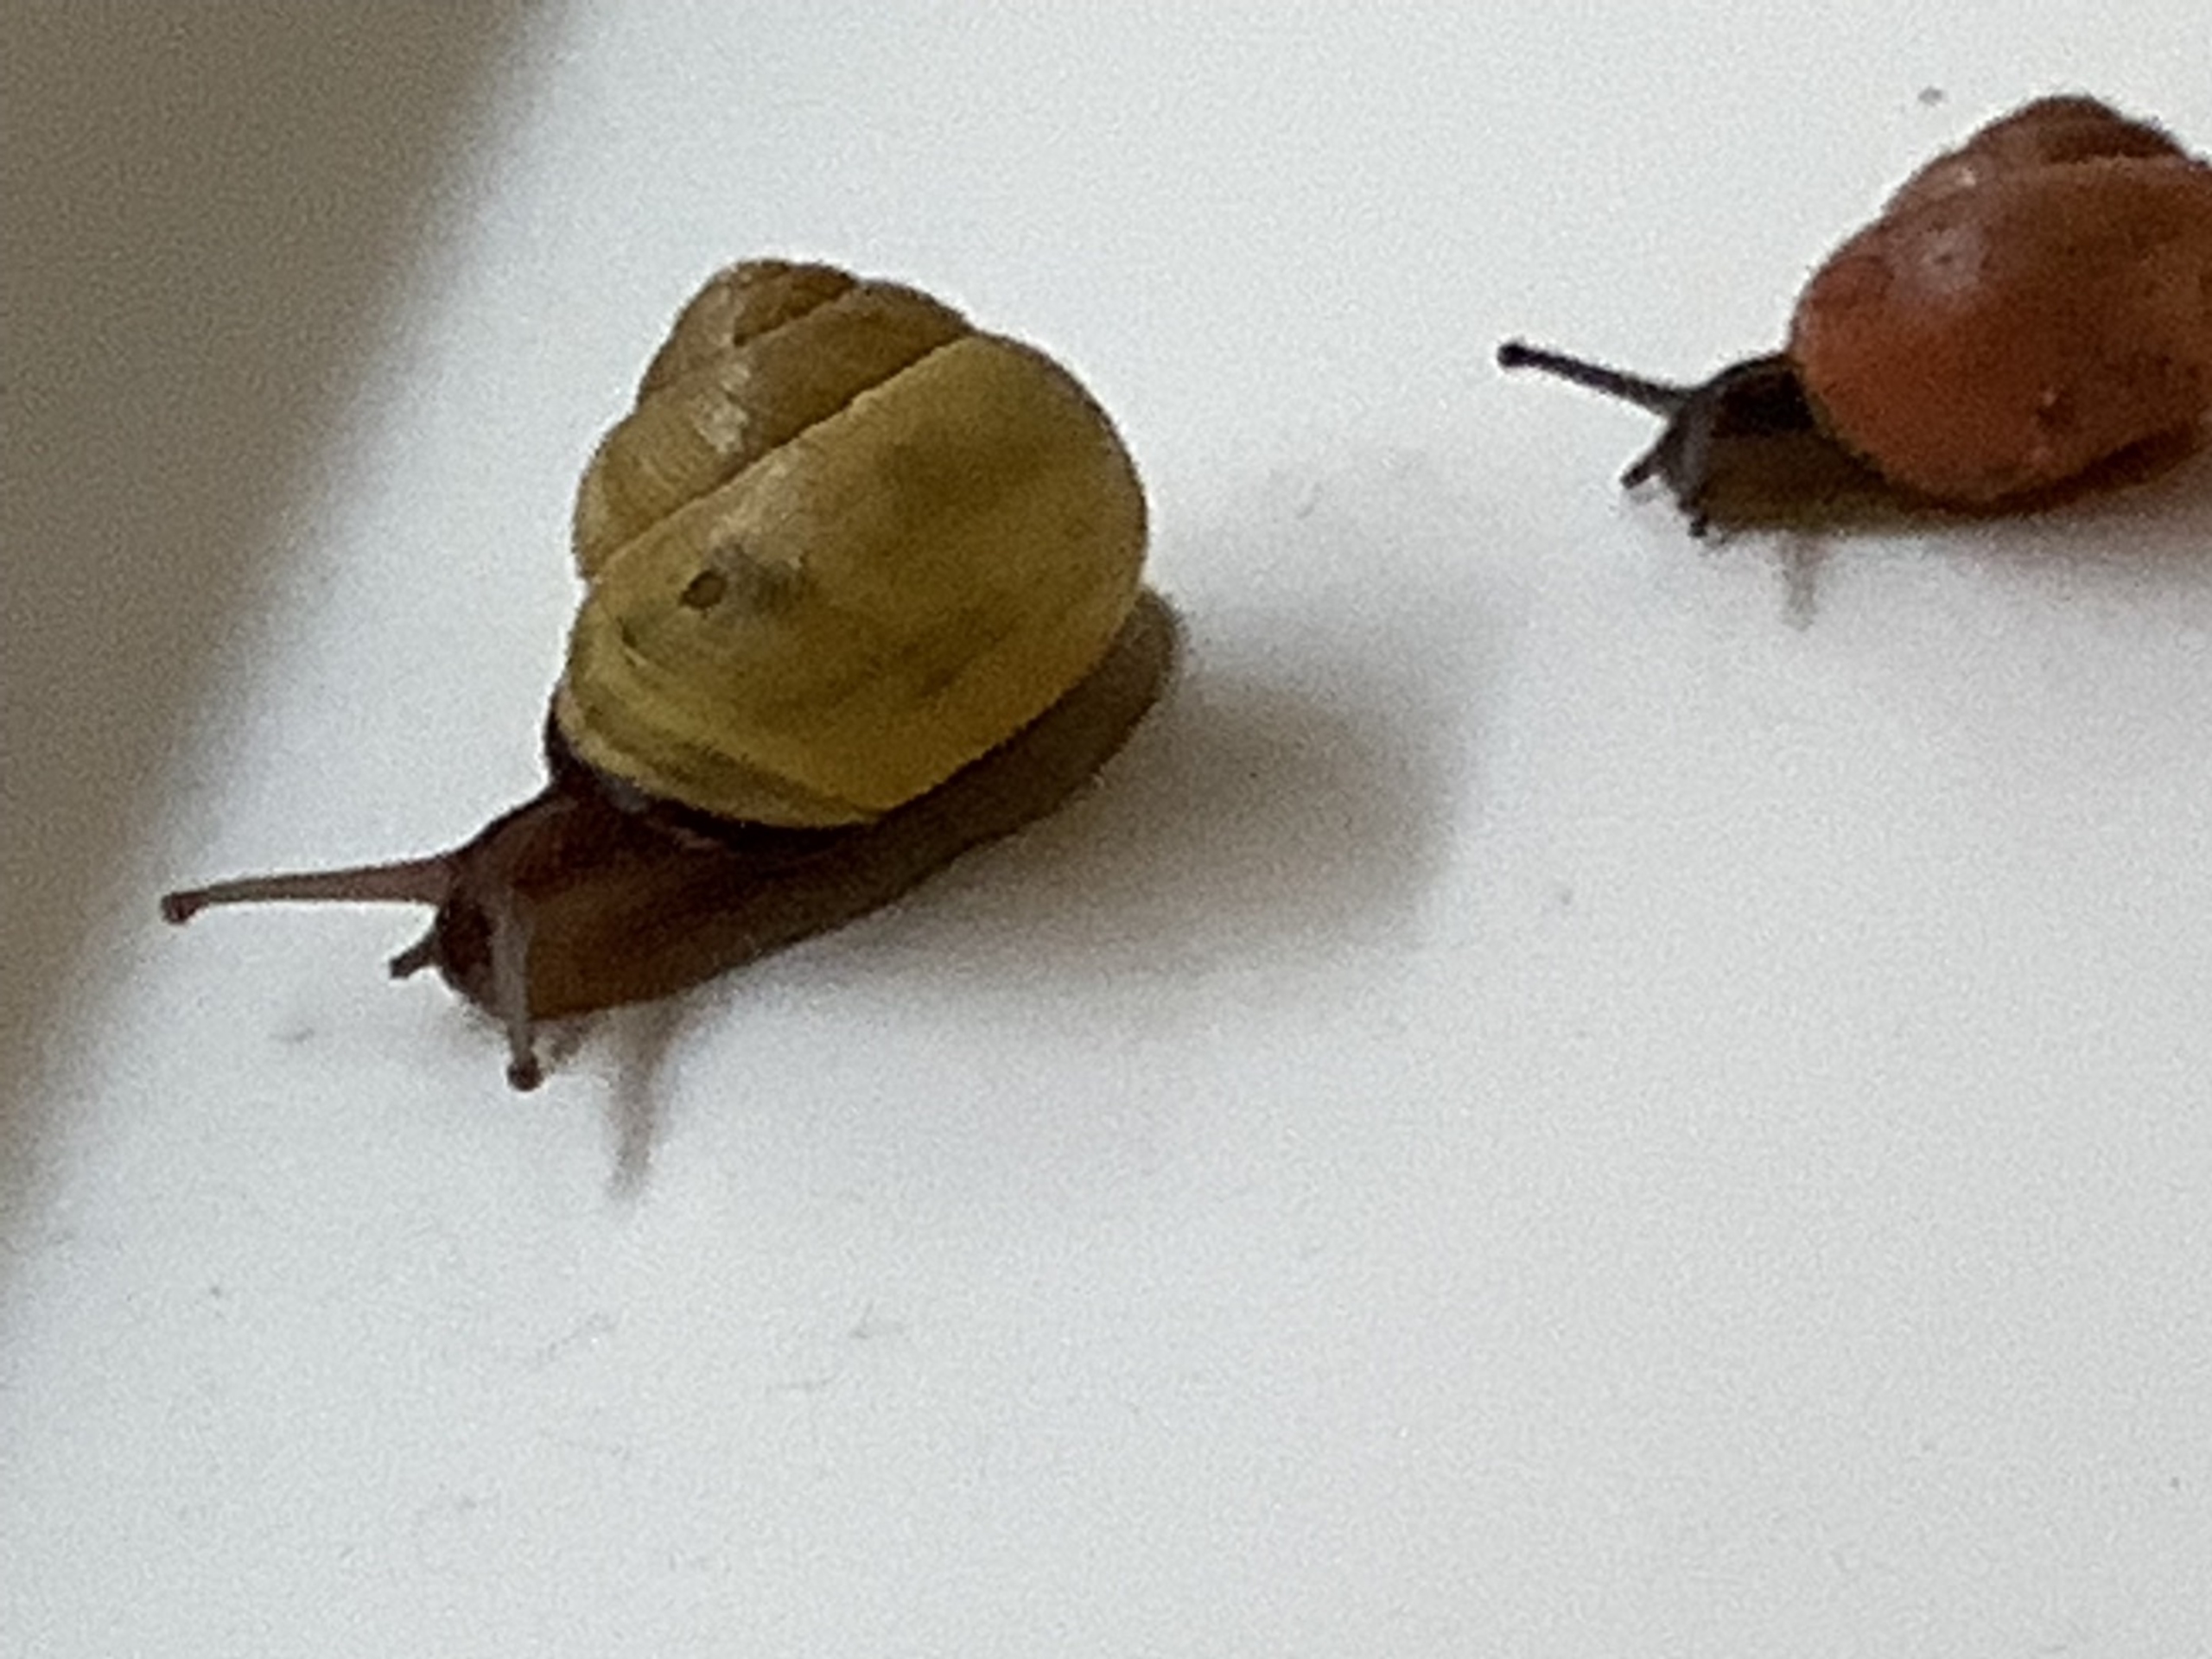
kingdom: Animalia
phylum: Mollusca
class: Gastropoda
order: Stylommatophora
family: Helicidae
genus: Cepaea
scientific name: Cepaea nemoralis
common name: Lundsnegl
